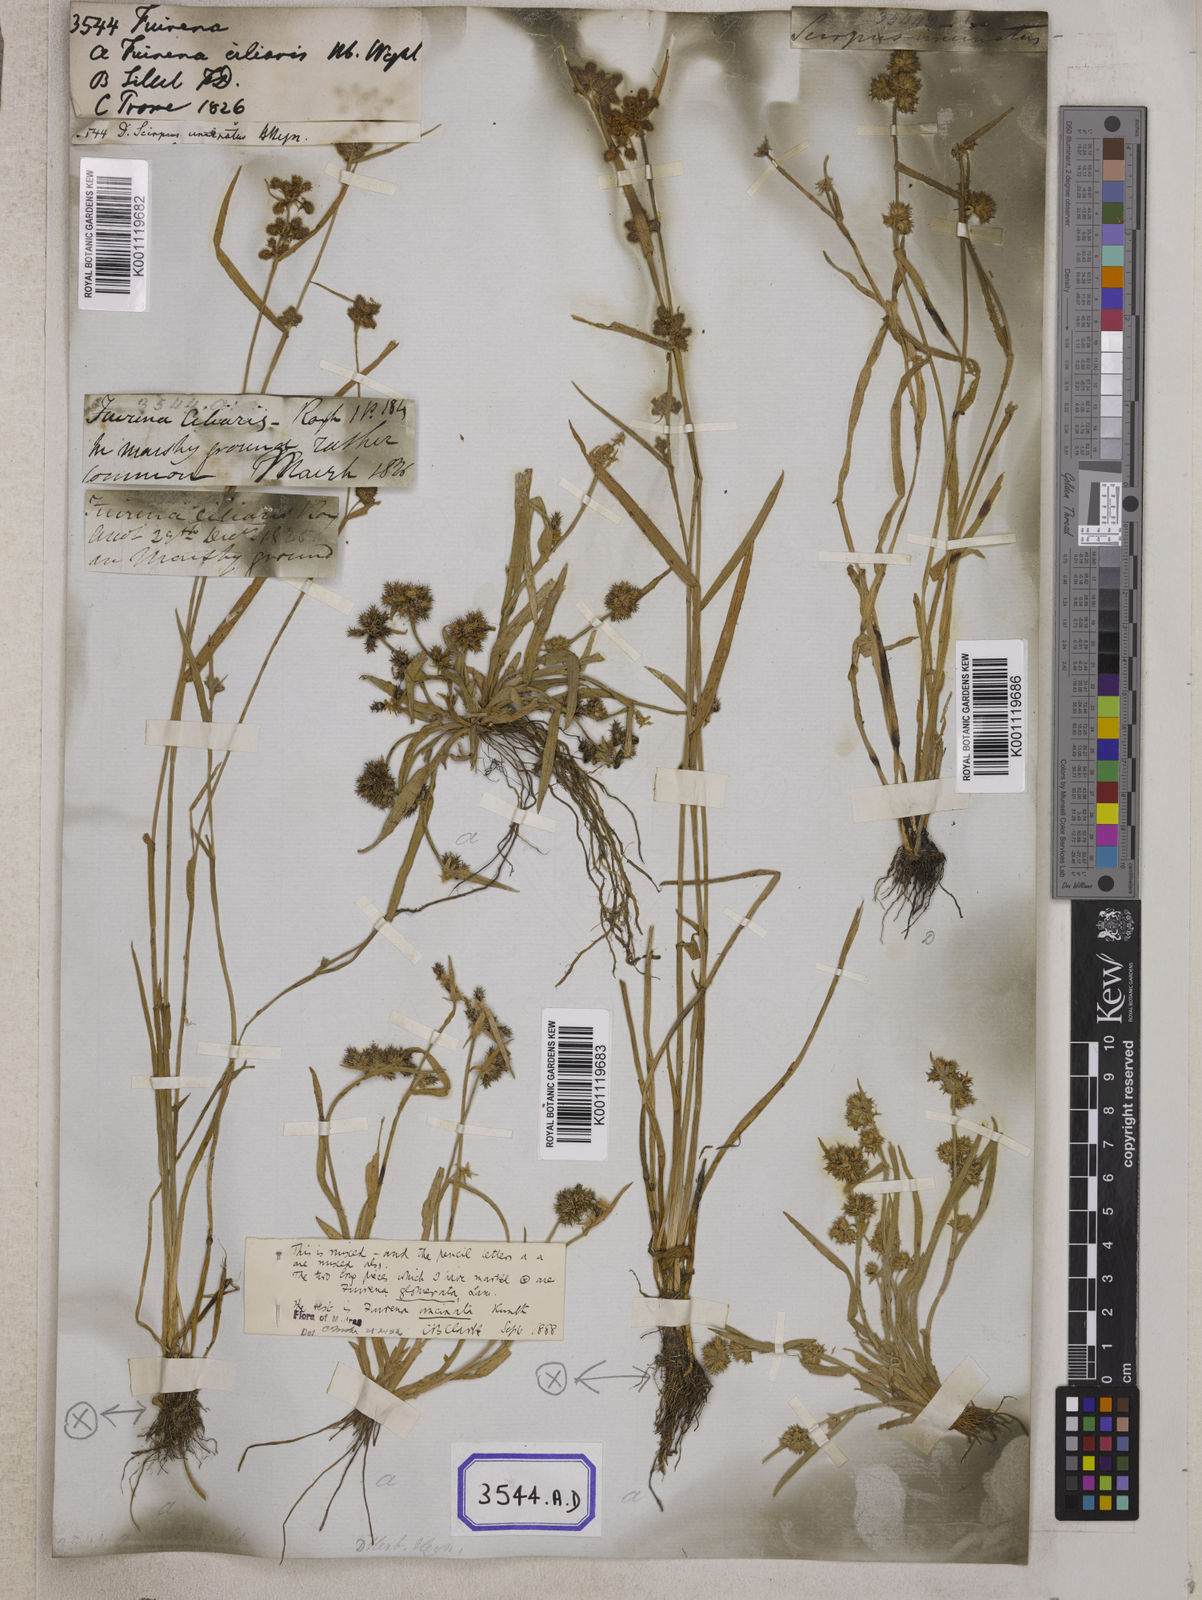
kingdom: Plantae
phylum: Tracheophyta
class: Liliopsida
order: Poales
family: Cyperaceae
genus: Fuirena
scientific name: Fuirena
